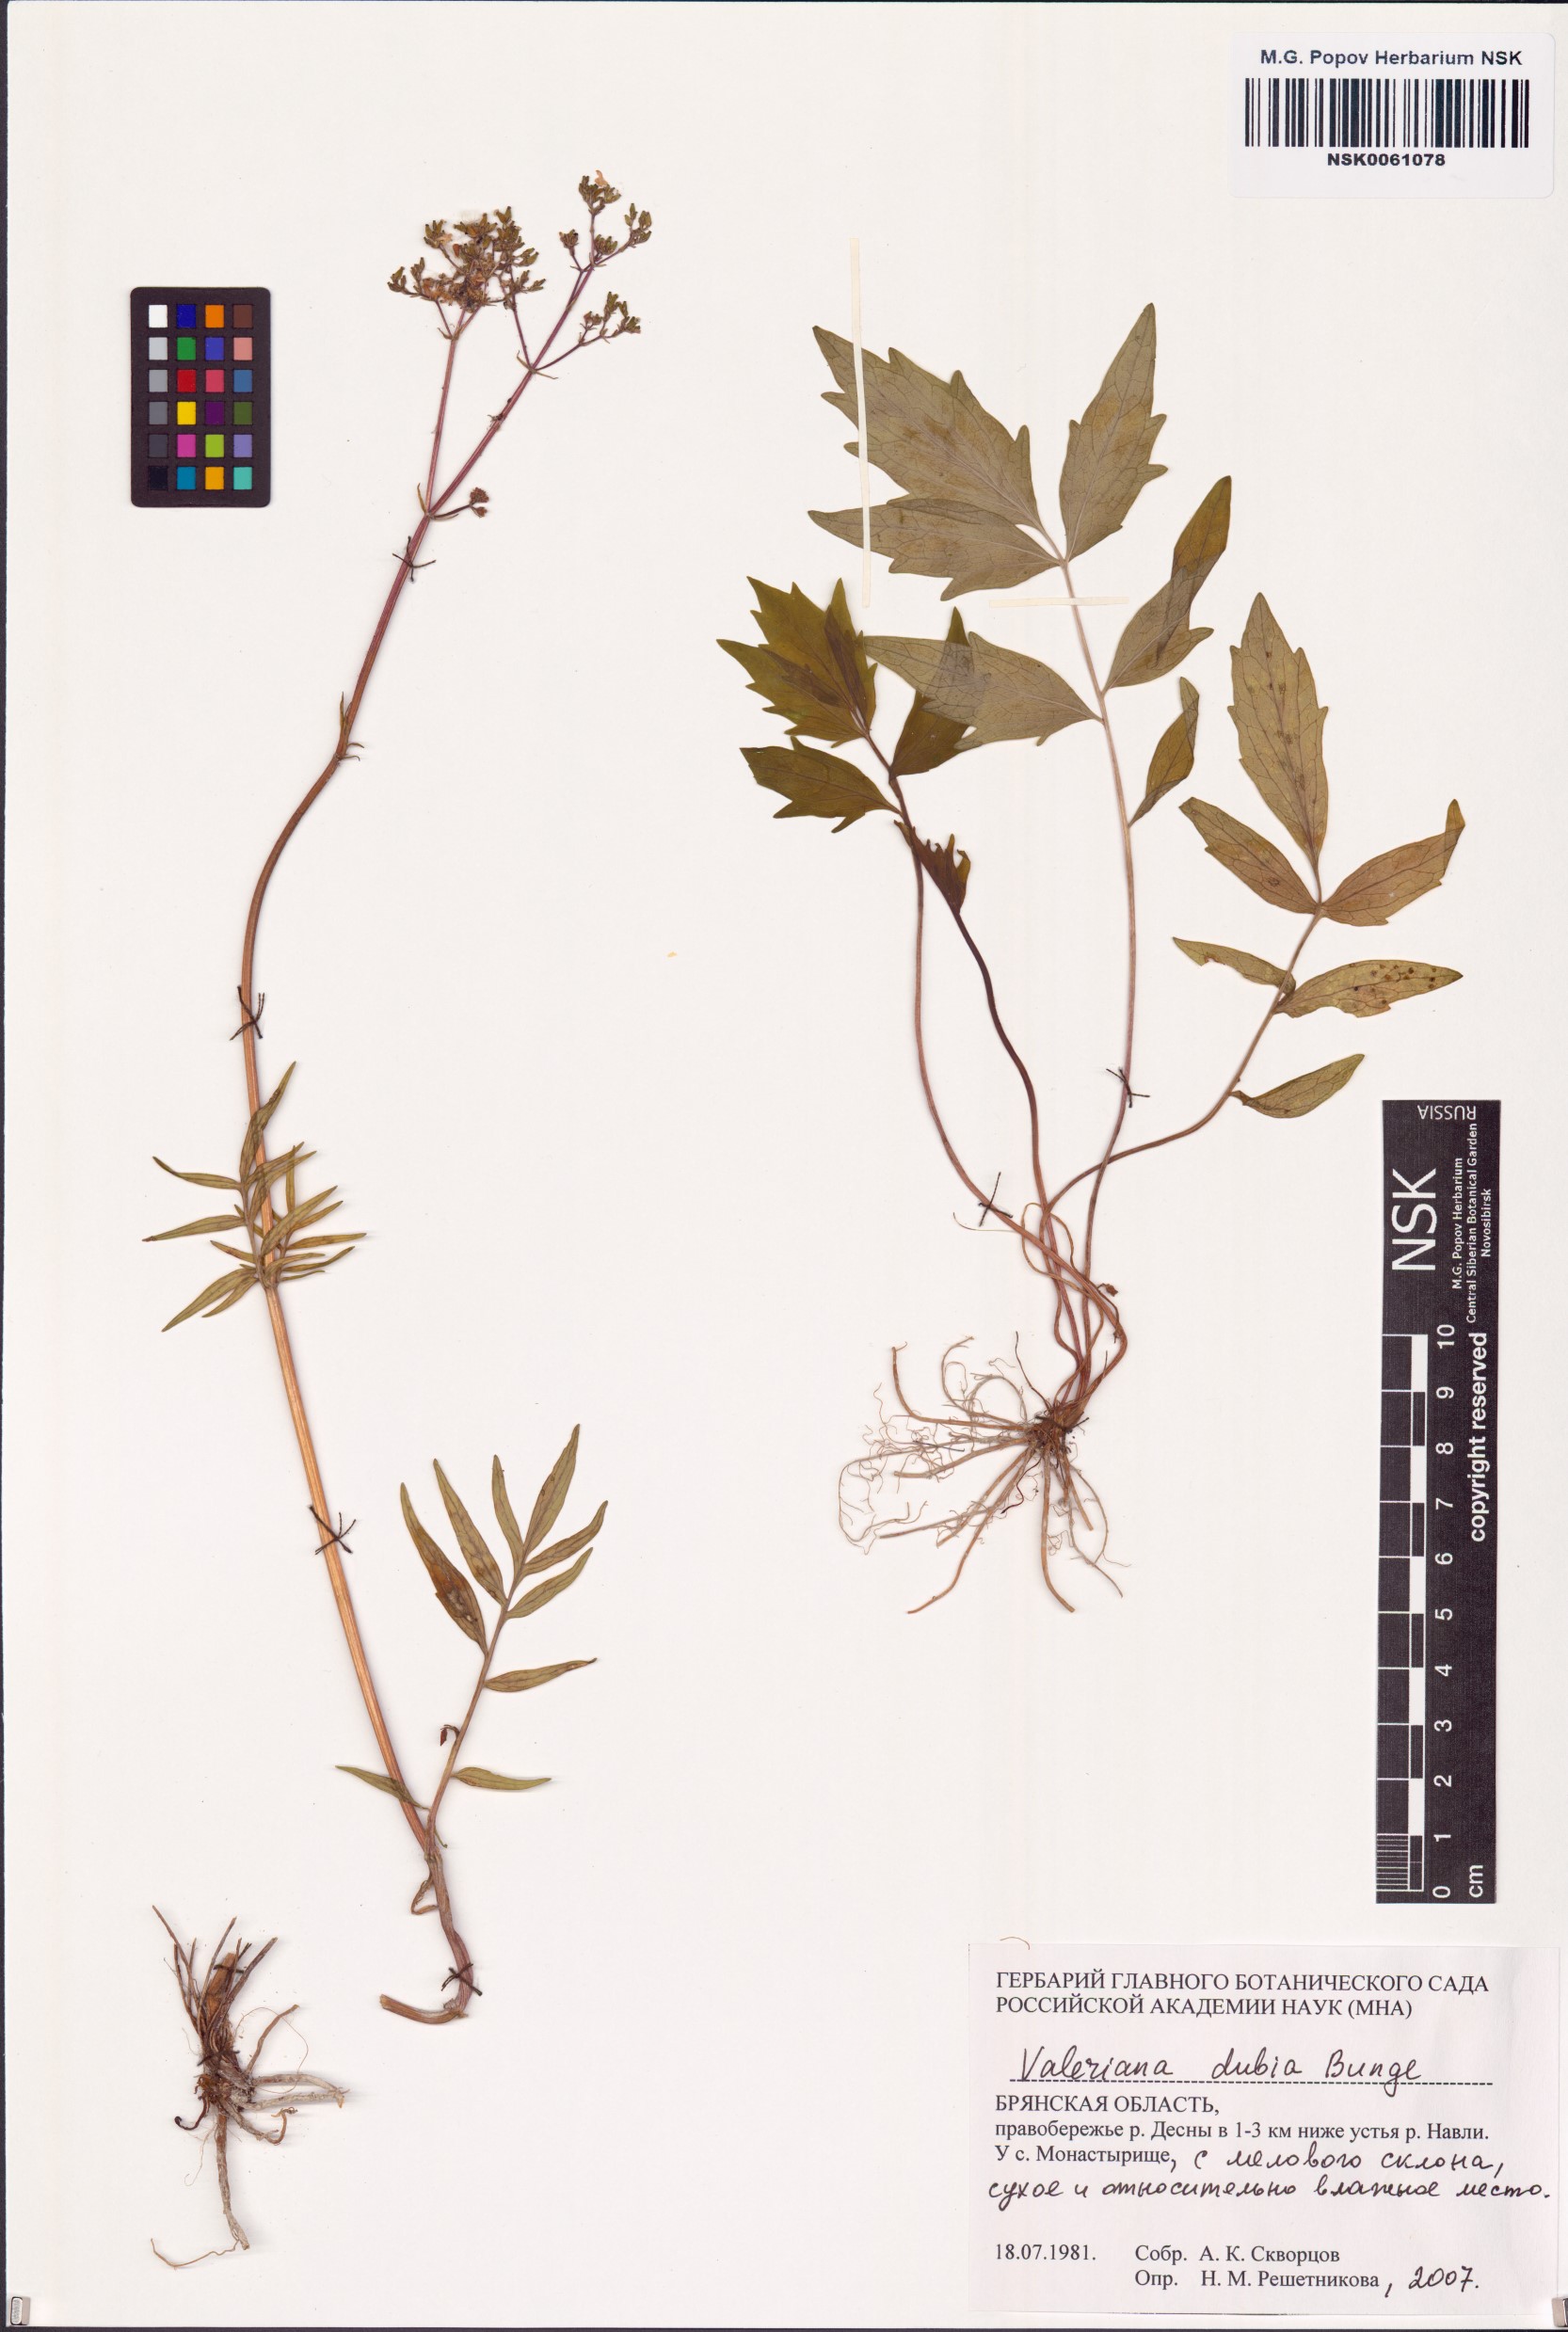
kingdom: Plantae
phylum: Tracheophyta
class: Magnoliopsida
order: Dipsacales
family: Caprifoliaceae
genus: Valeriana
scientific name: Valeriana dubia
